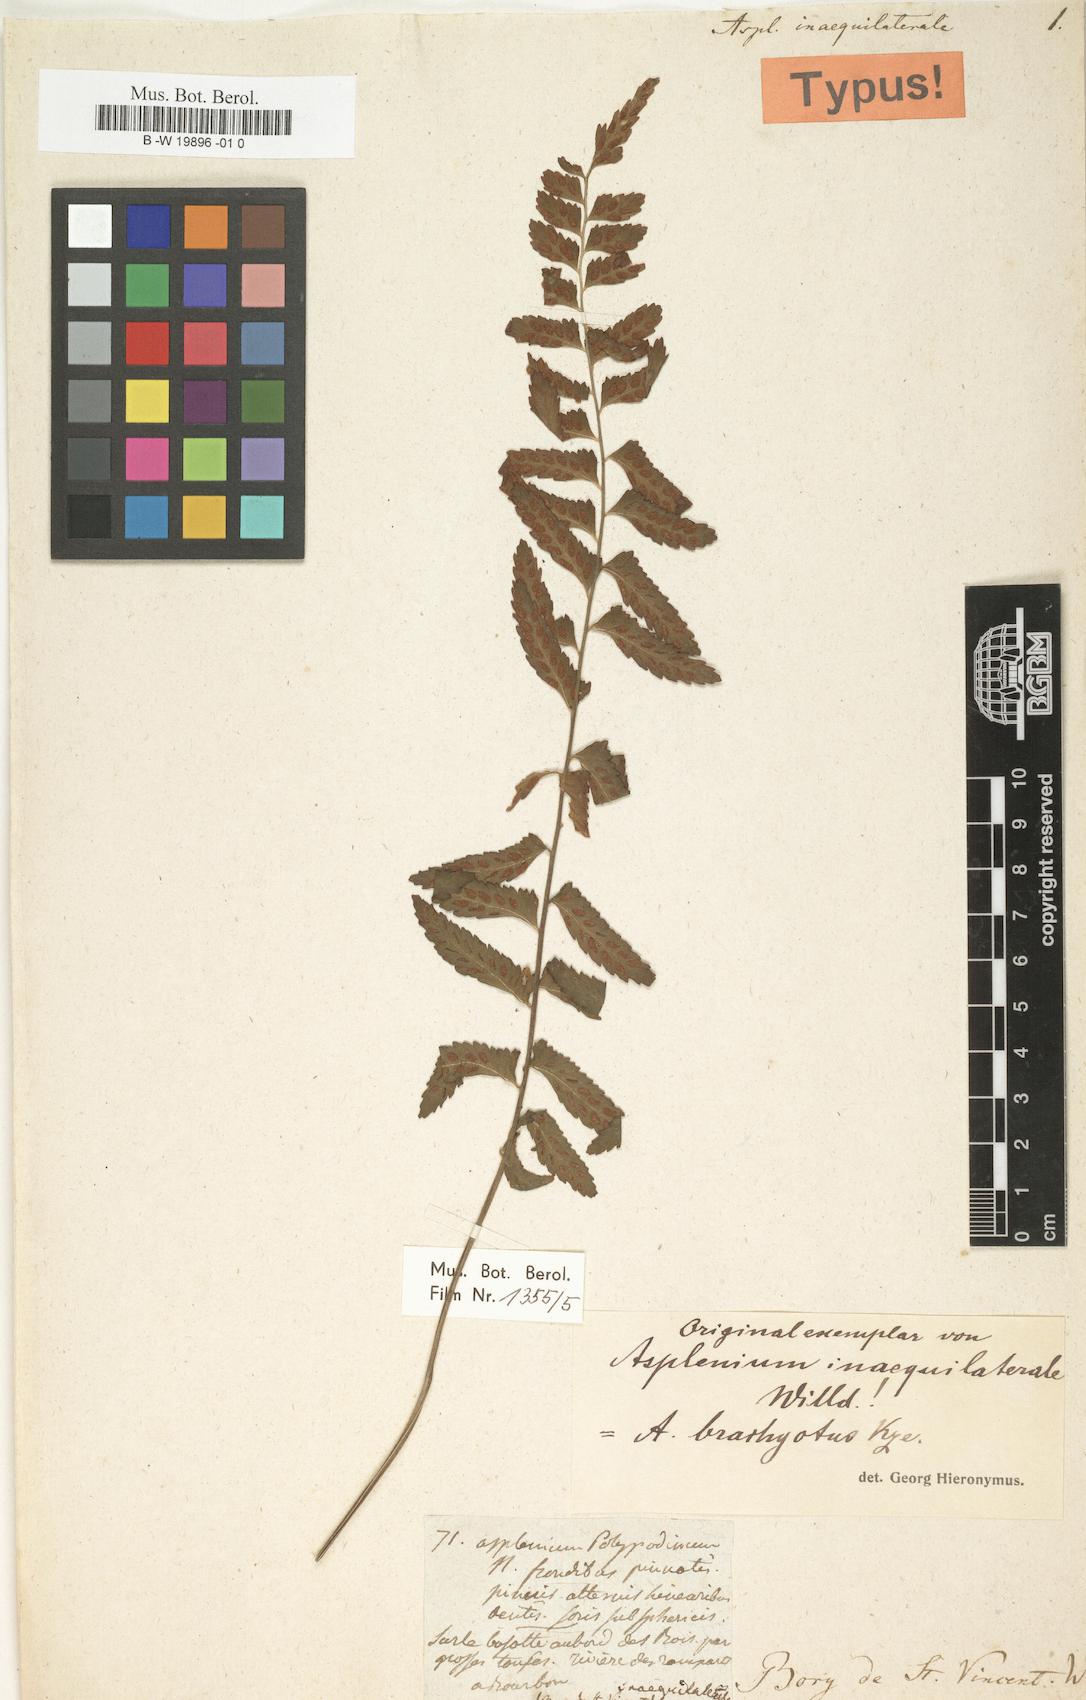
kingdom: Plantae
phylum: Tracheophyta
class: Polypodiopsida
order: Polypodiales
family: Aspleniaceae
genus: Asplenium
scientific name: Asplenium inaequilaterale
